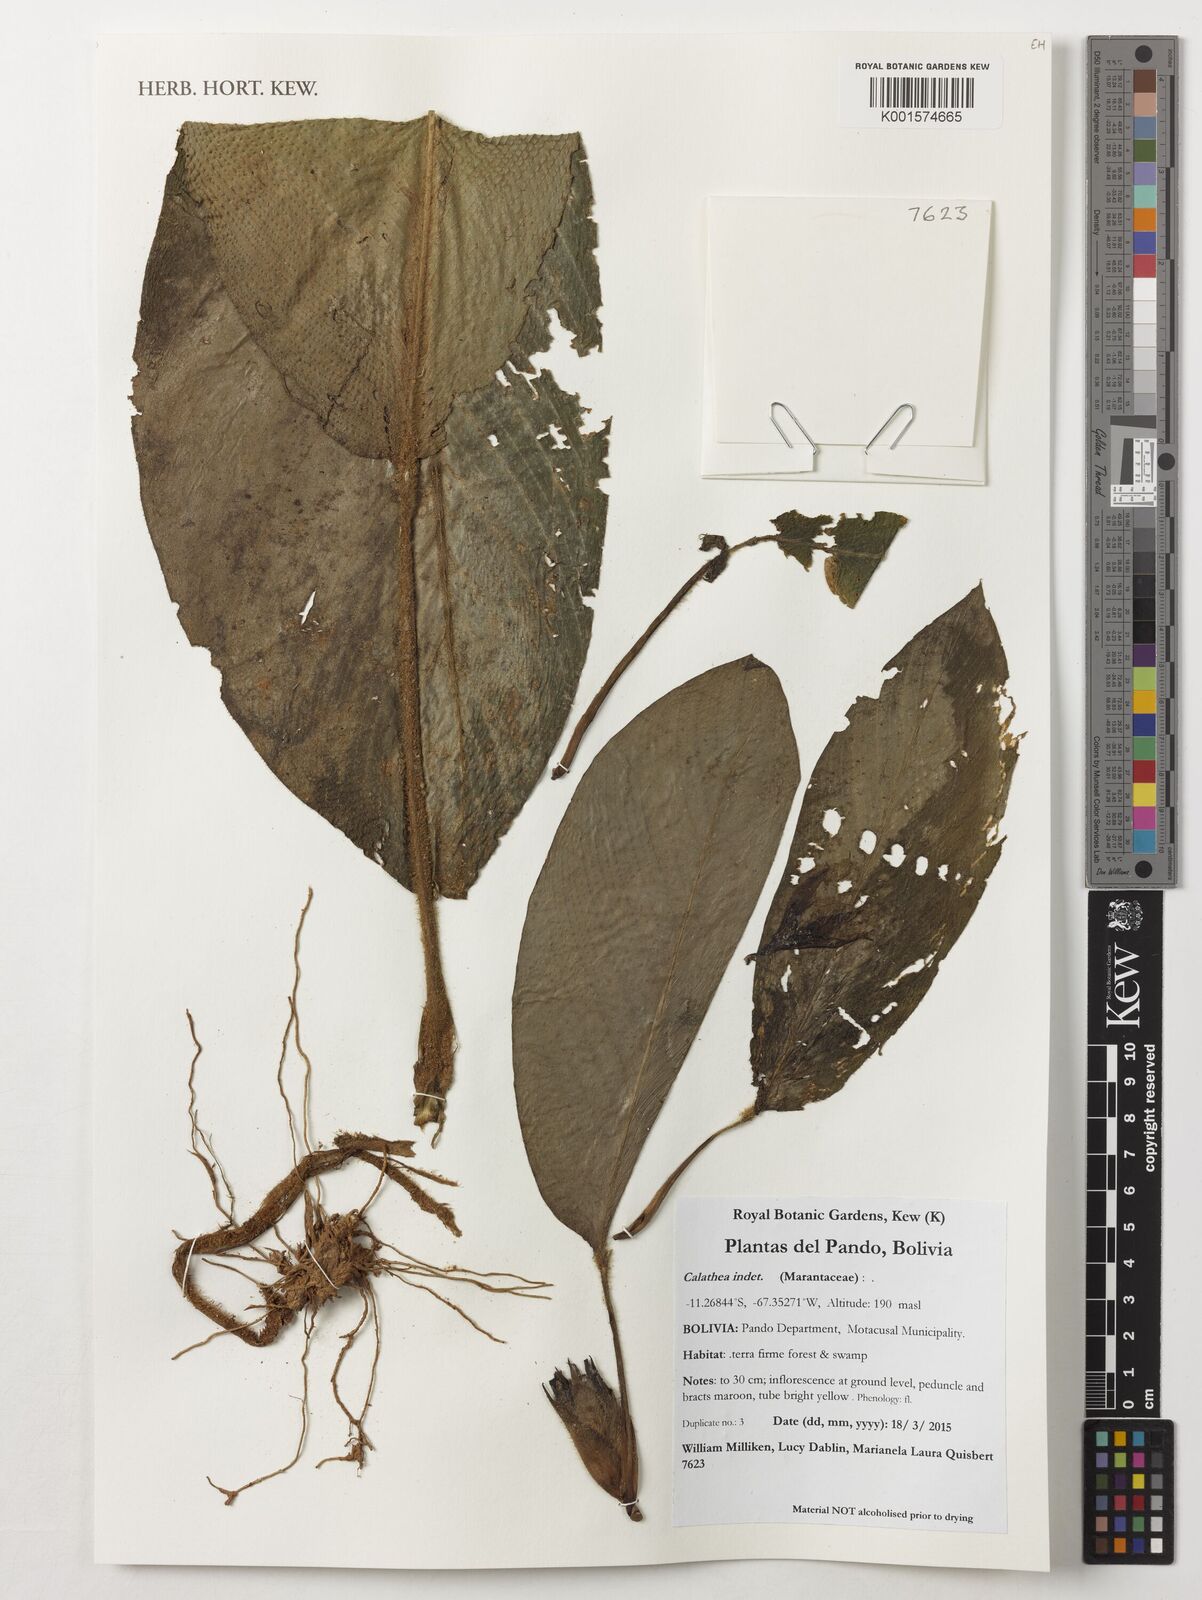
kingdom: Plantae
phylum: Tracheophyta
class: Liliopsida
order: Zingiberales
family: Marantaceae
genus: Calathea
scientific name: Calathea
